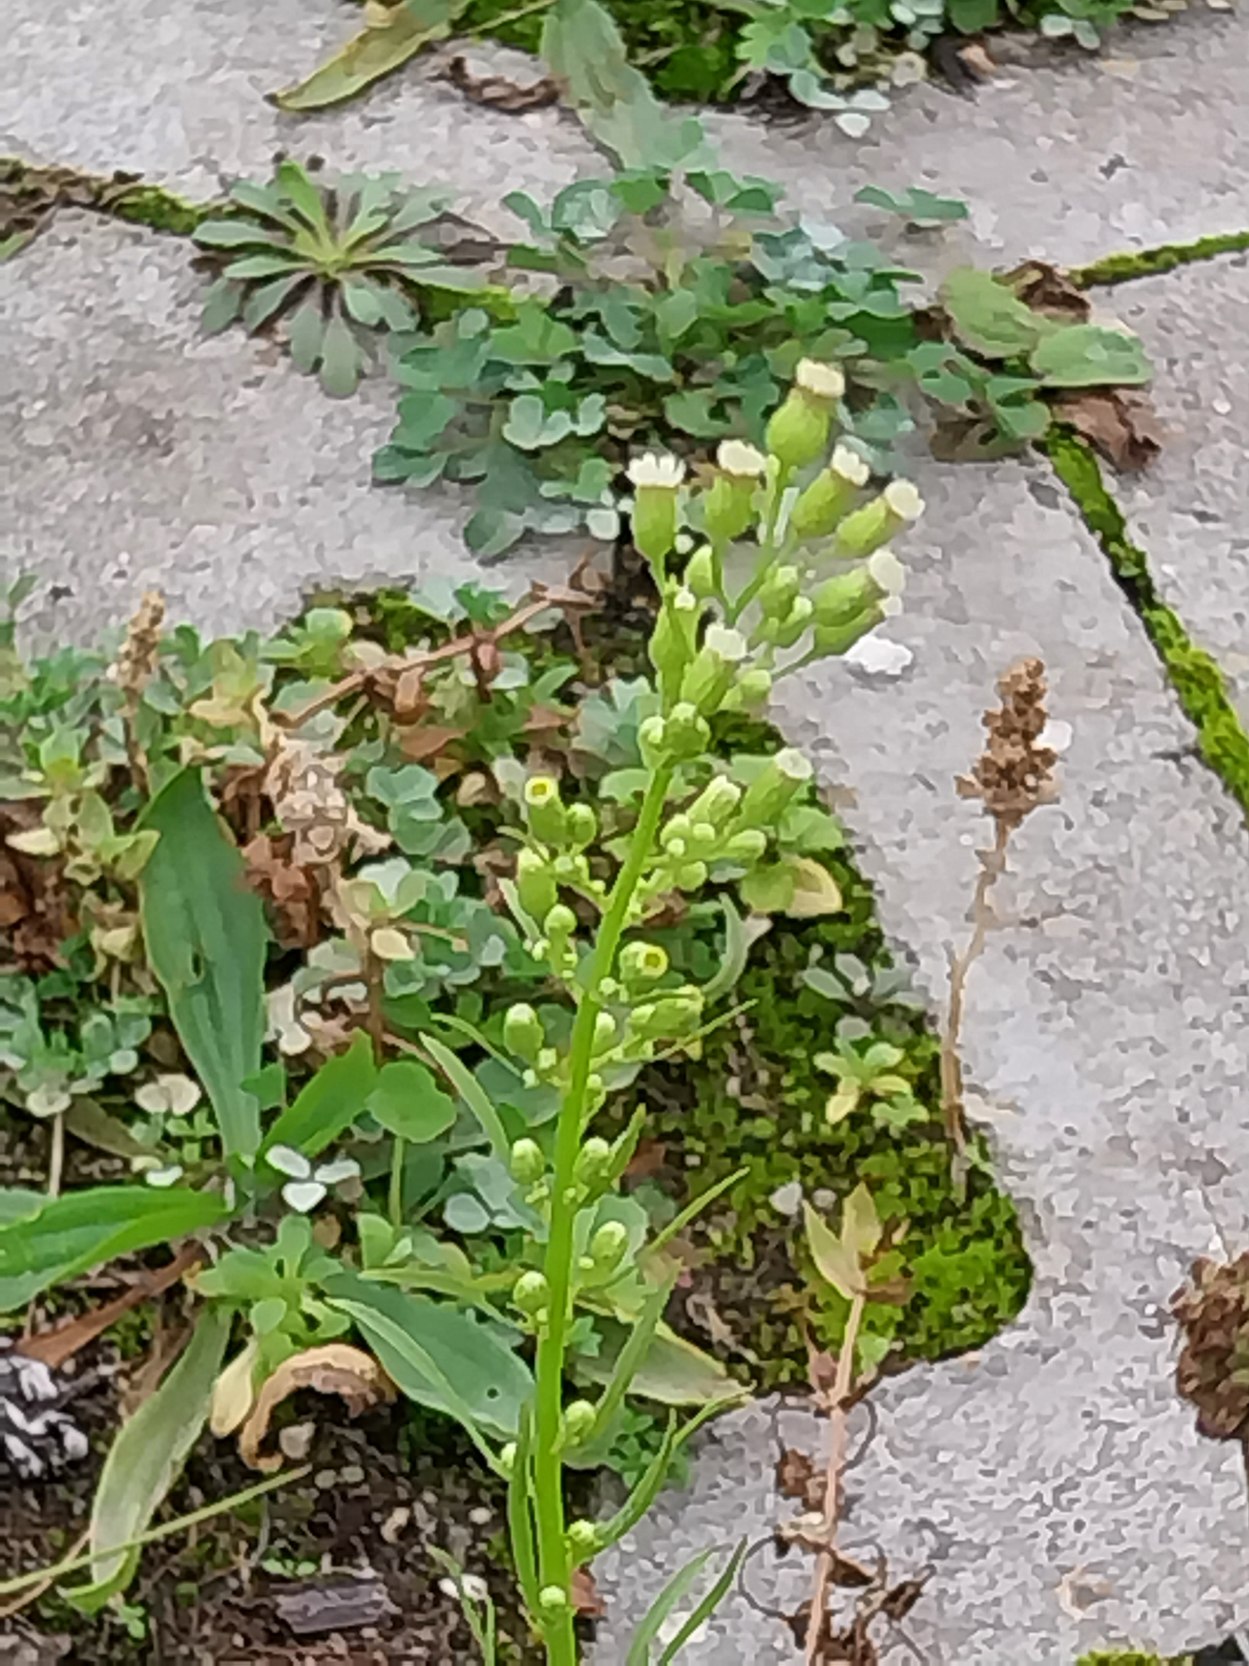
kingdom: Plantae
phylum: Tracheophyta
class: Magnoliopsida
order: Asterales
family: Asteraceae
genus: Erigeron
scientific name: Erigeron canadensis
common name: Kanadisk bakkestjerne
